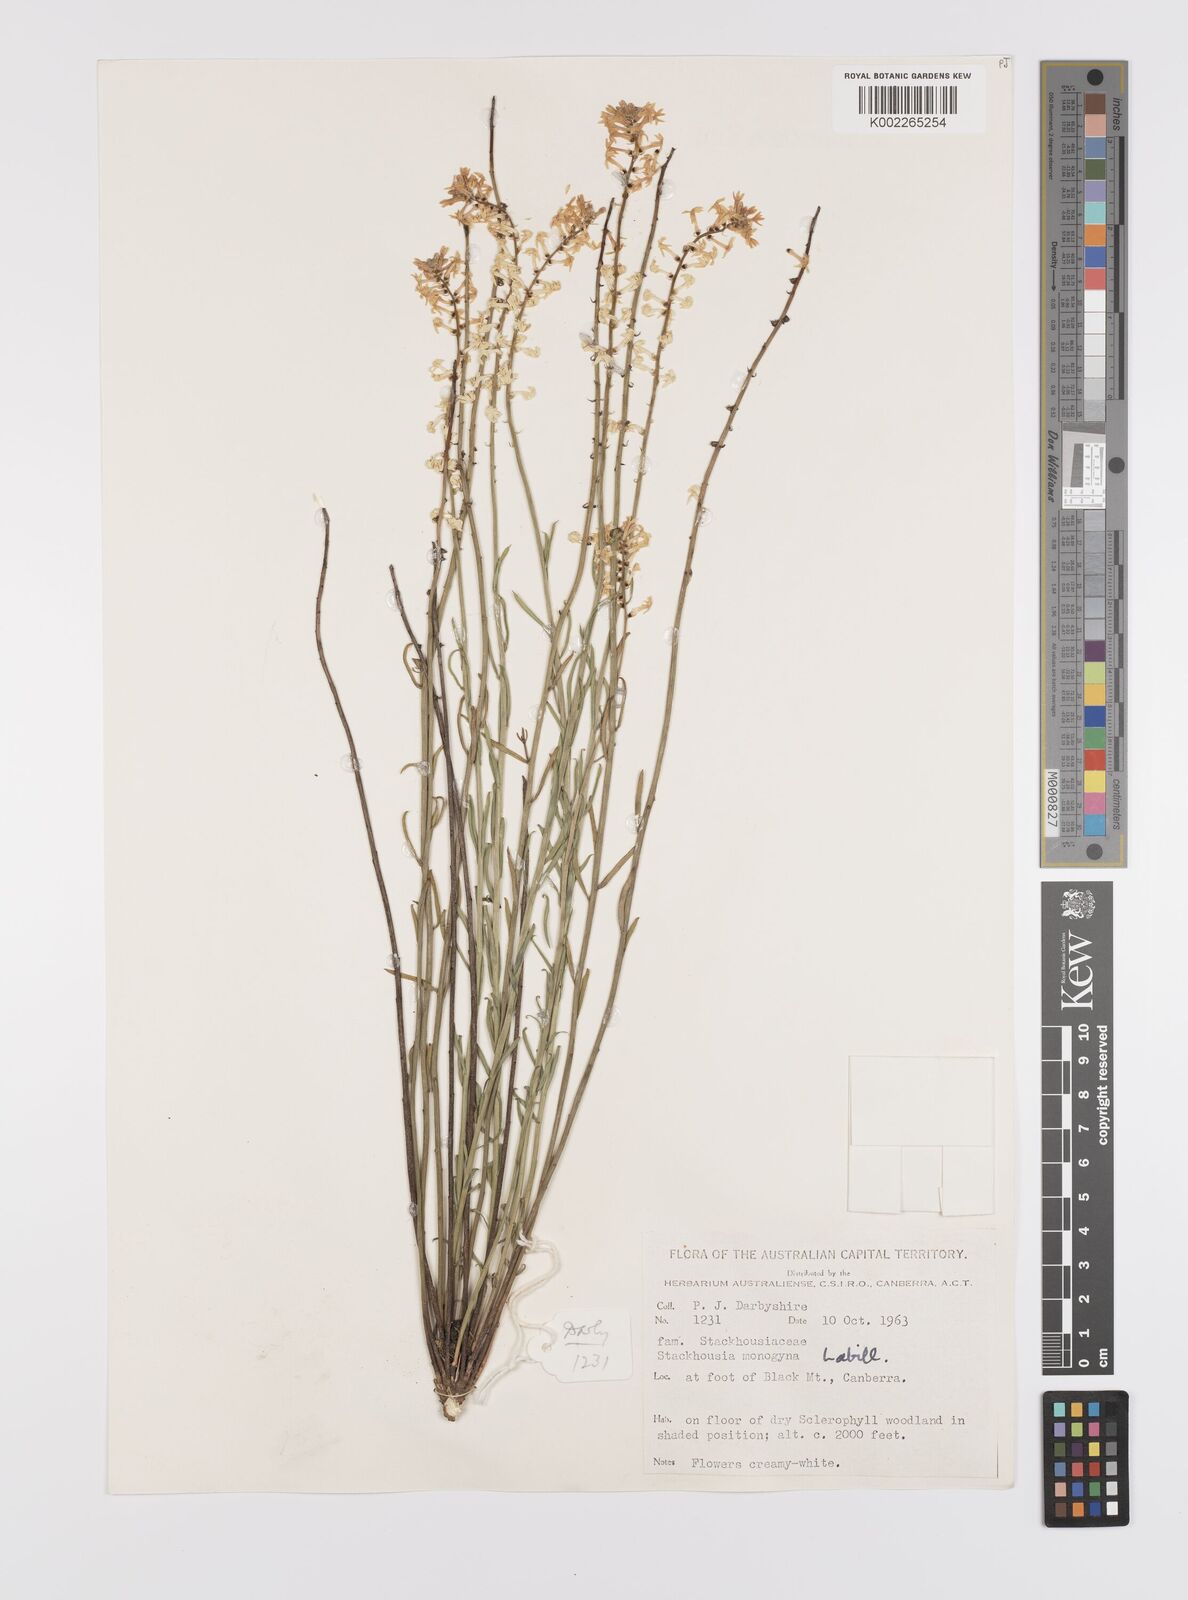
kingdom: Plantae
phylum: Tracheophyta
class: Magnoliopsida
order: Celastrales
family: Celastraceae
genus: Stackhousia
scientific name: Stackhousia monogyna
